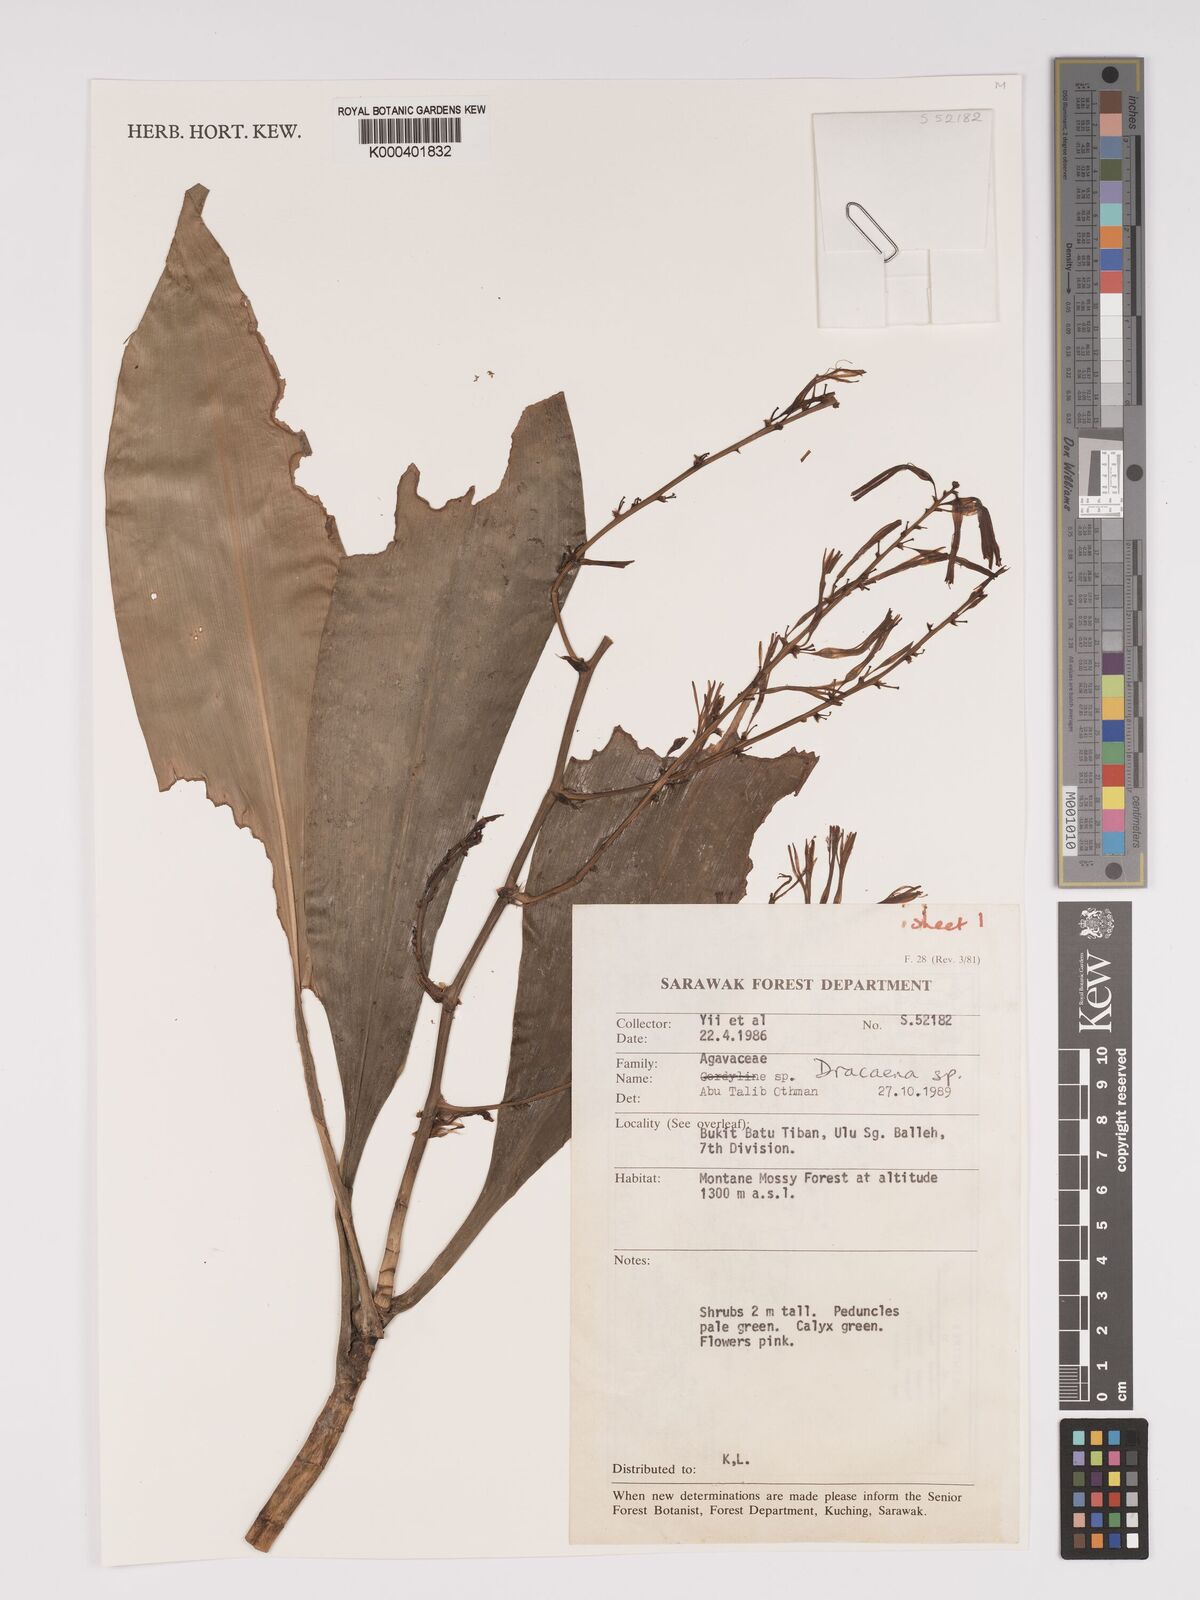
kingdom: Plantae
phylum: Tracheophyta
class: Liliopsida
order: Asparagales
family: Asparagaceae
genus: Dracaena
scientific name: Dracaena
